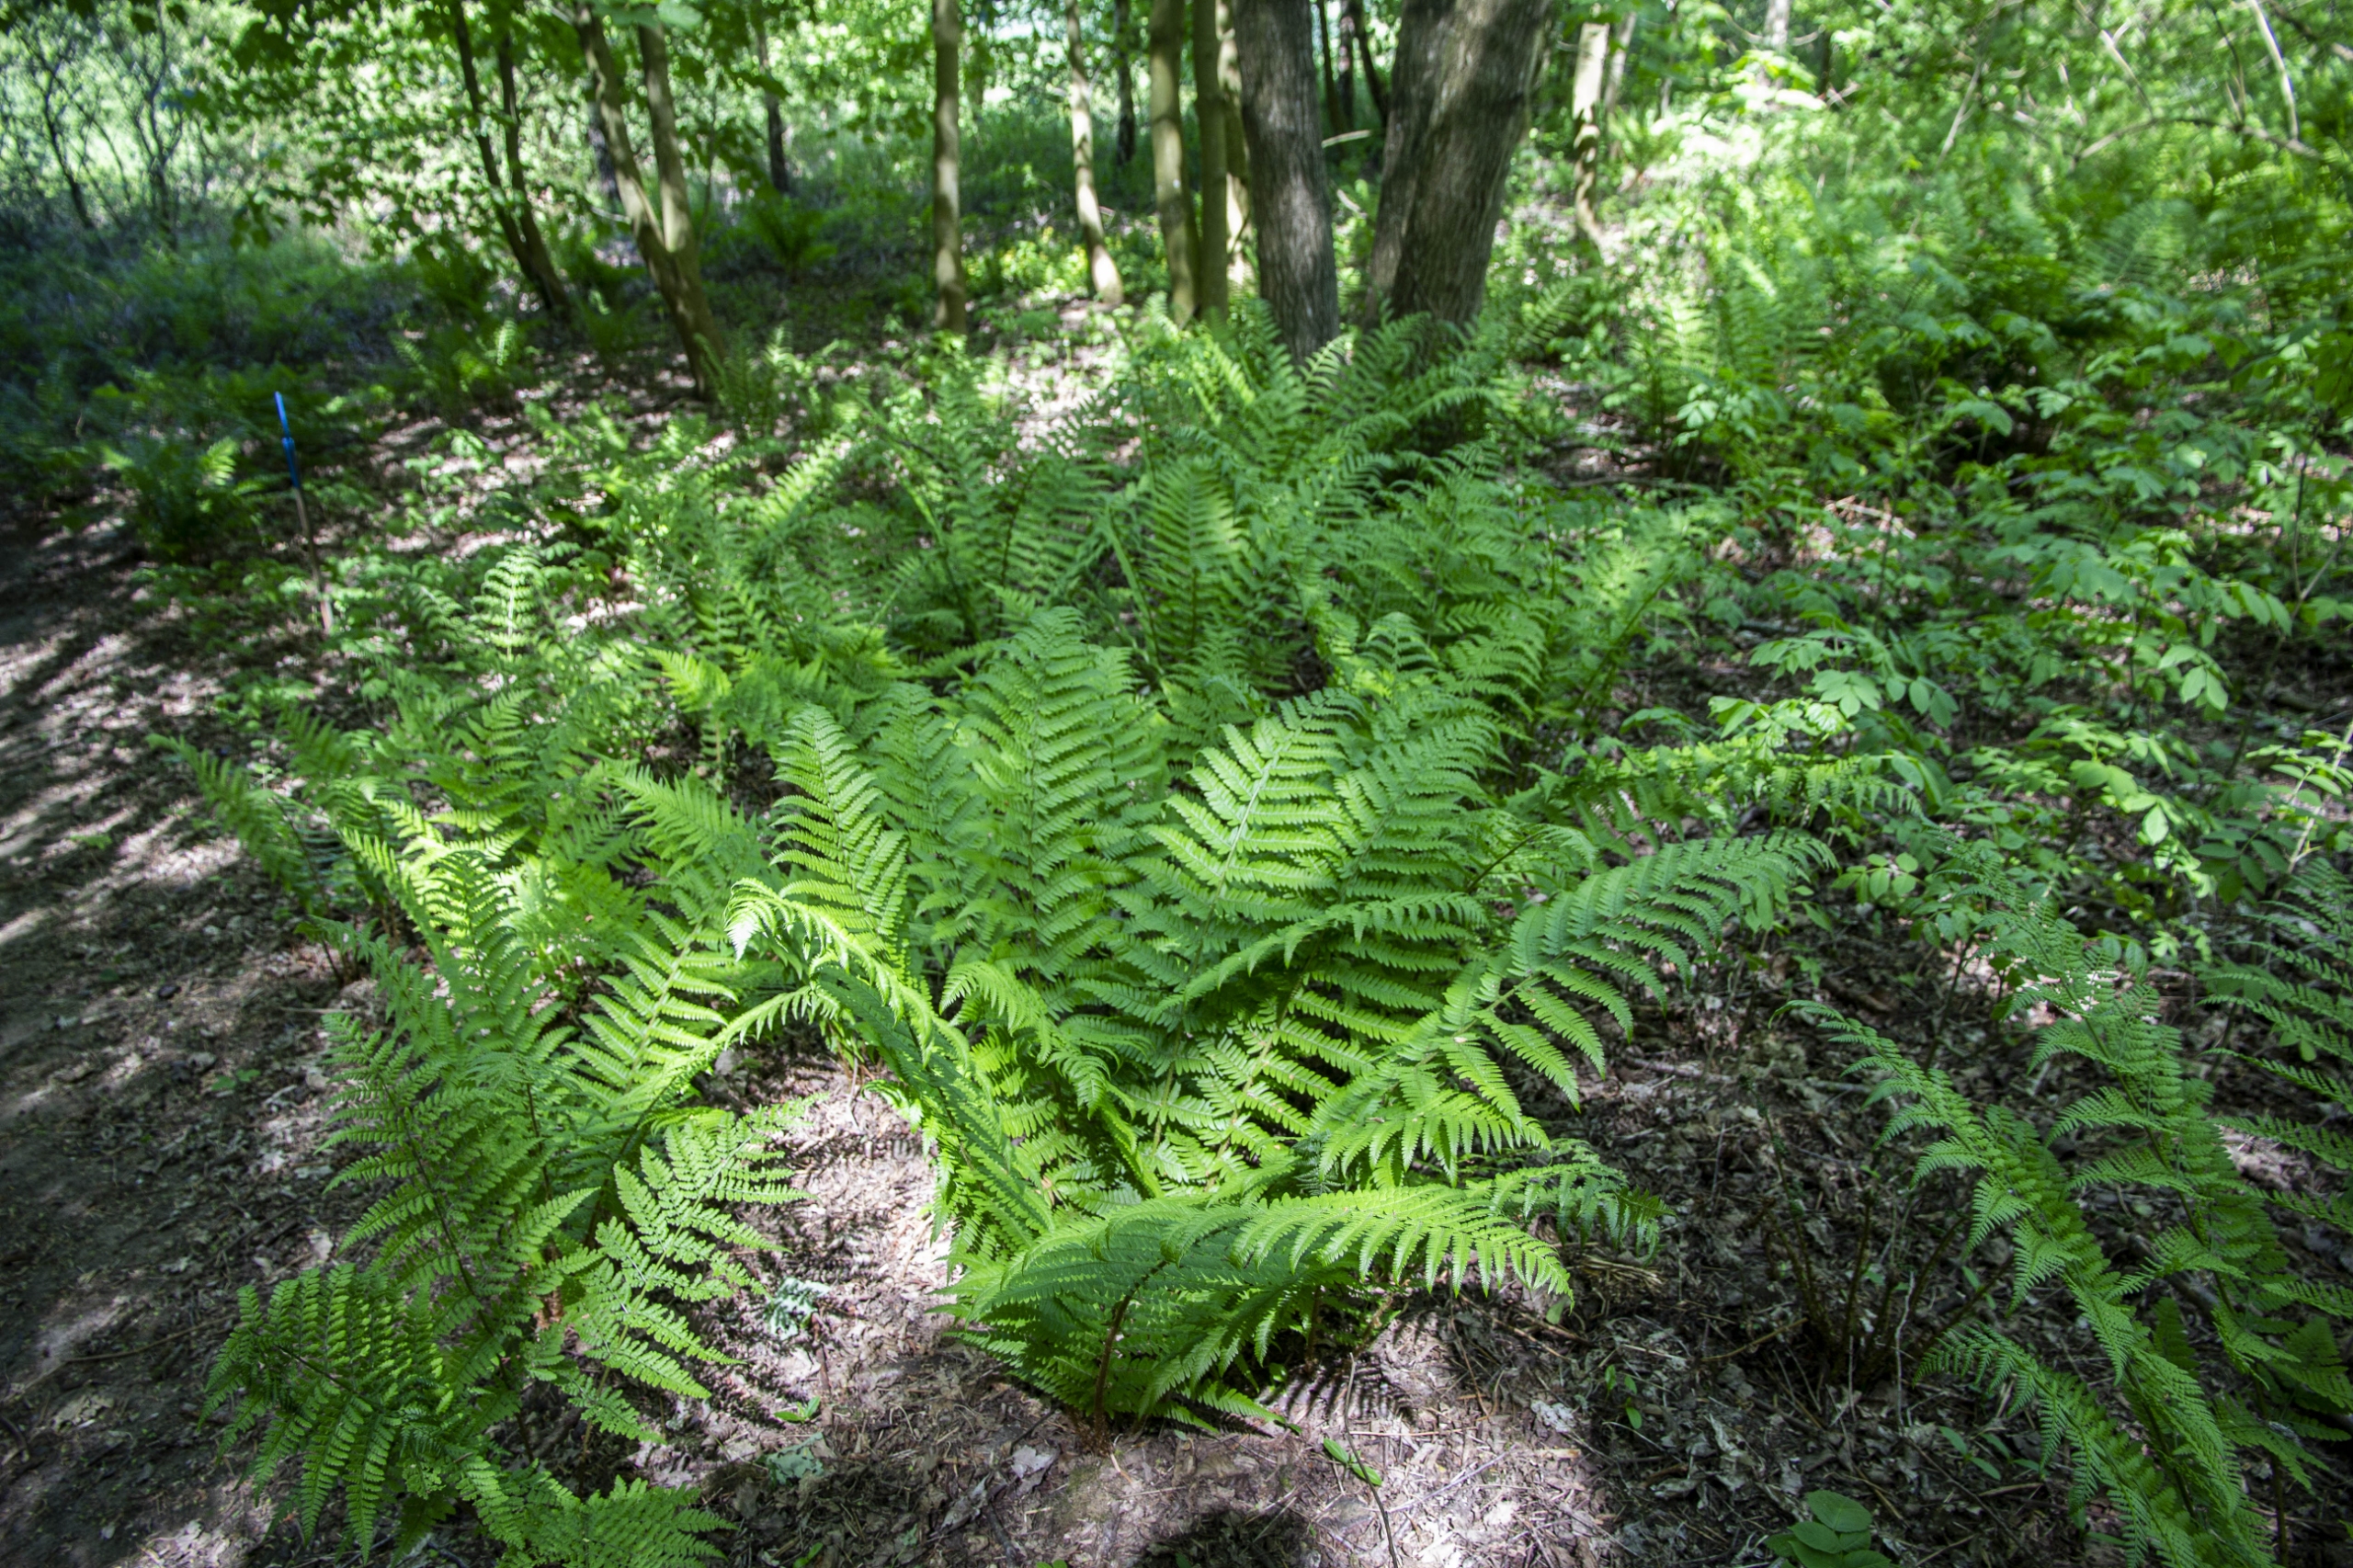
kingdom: Plantae
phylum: Tracheophyta
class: Polypodiopsida
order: Polypodiales
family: Dryopteridaceae
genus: Dryopteris
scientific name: Dryopteris filix-mas
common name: Almindelig mangeløv
